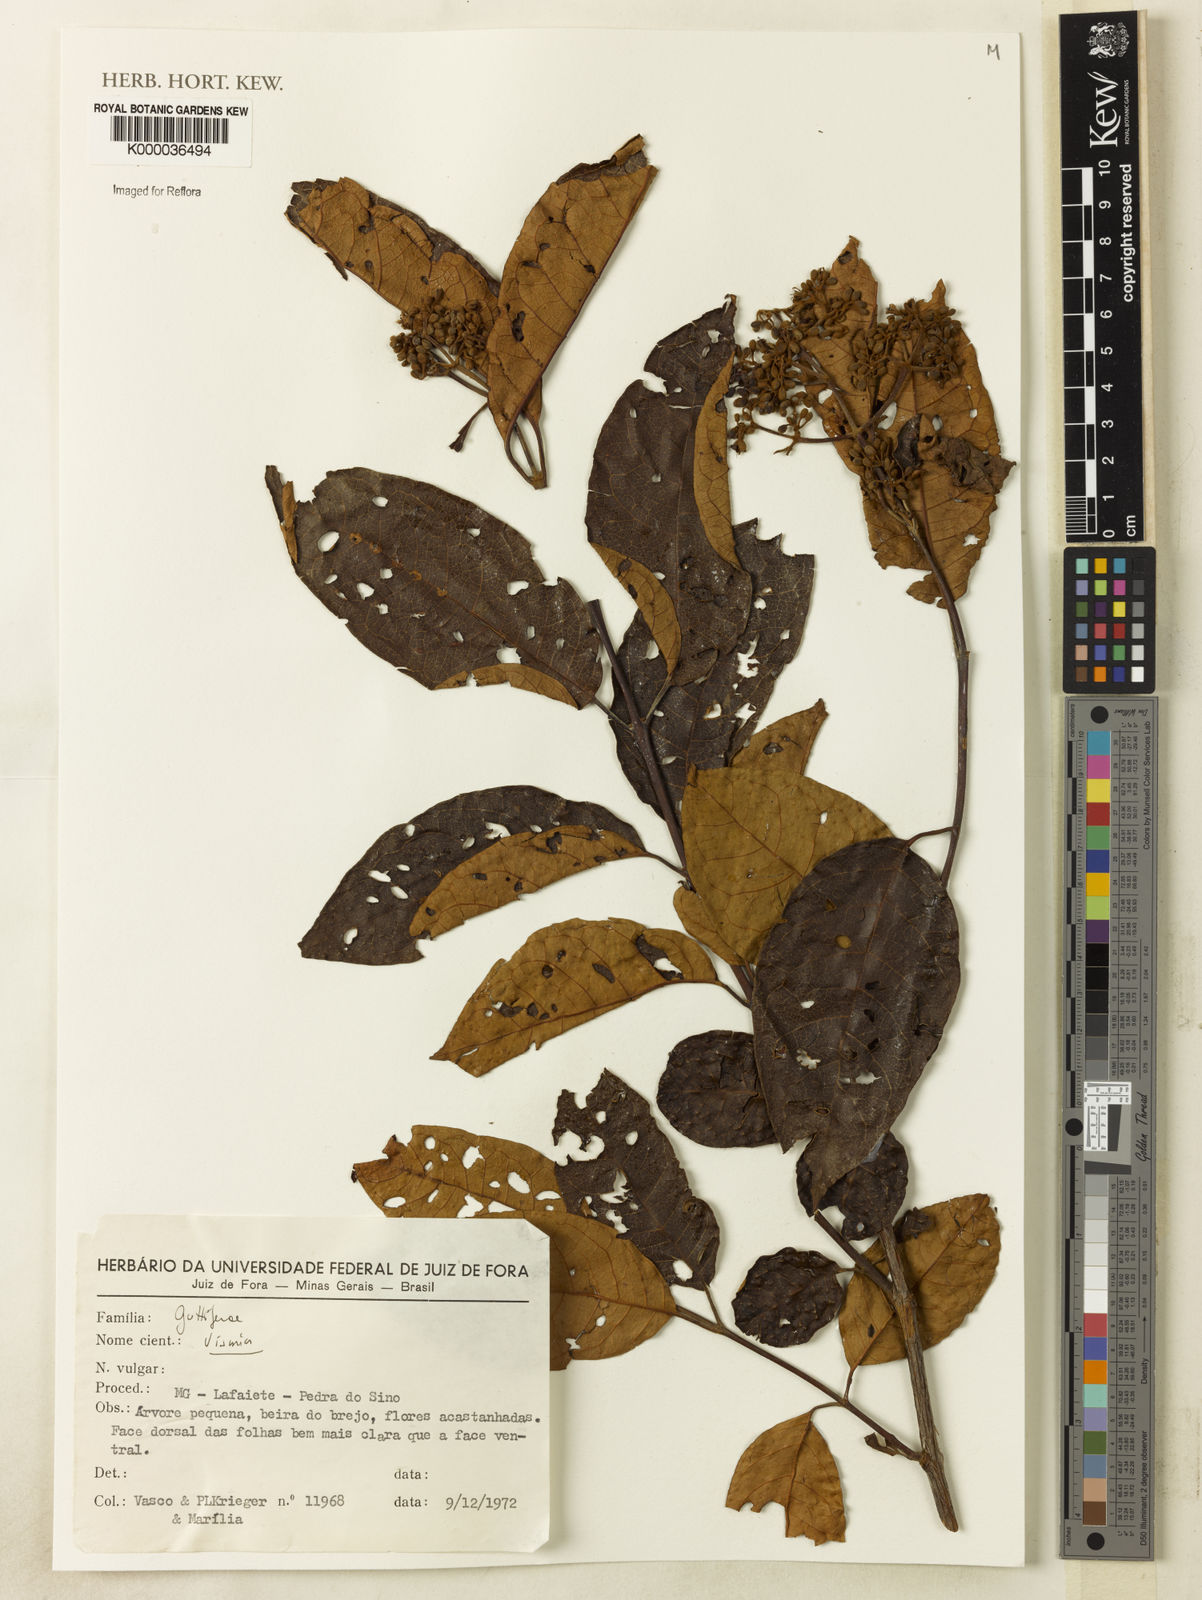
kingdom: Plantae
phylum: Tracheophyta
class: Magnoliopsida
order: Malpighiales
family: Hypericaceae
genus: Vismia
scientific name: Vismia
